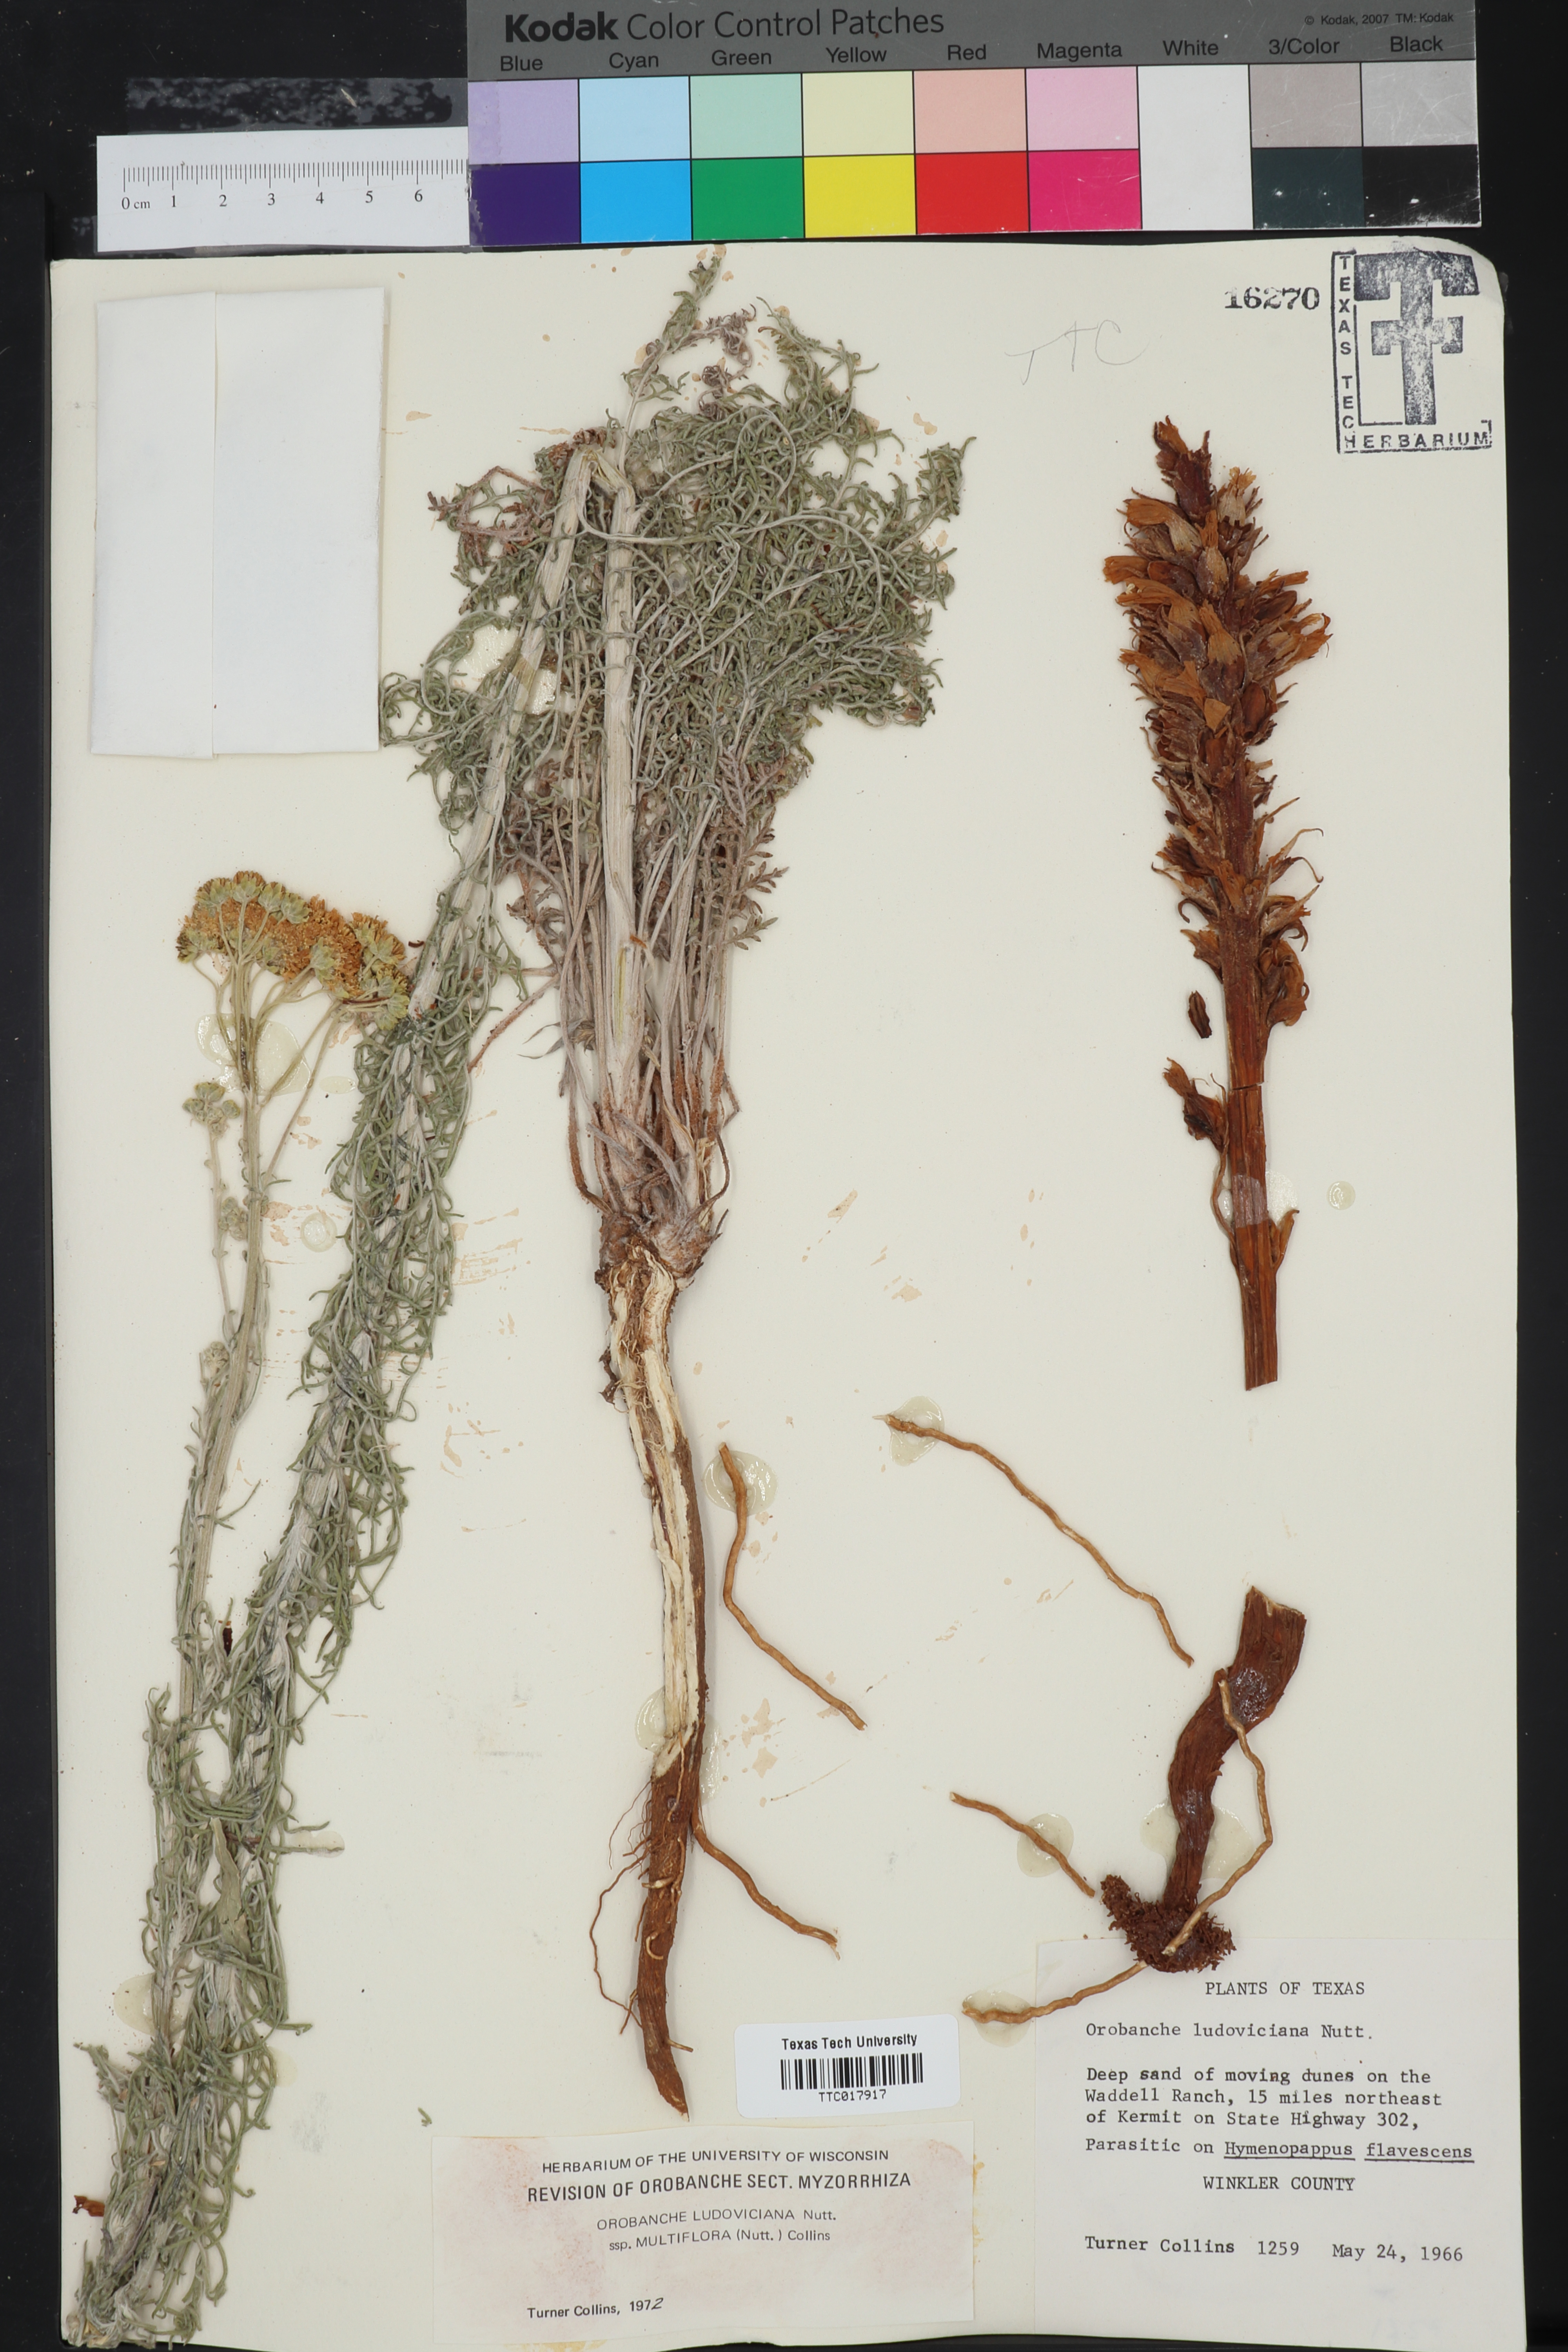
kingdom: Plantae
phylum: Tracheophyta
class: Magnoliopsida
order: Lamiales
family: Orobanchaceae
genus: Aphyllon
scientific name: Aphyllon multiflorum
